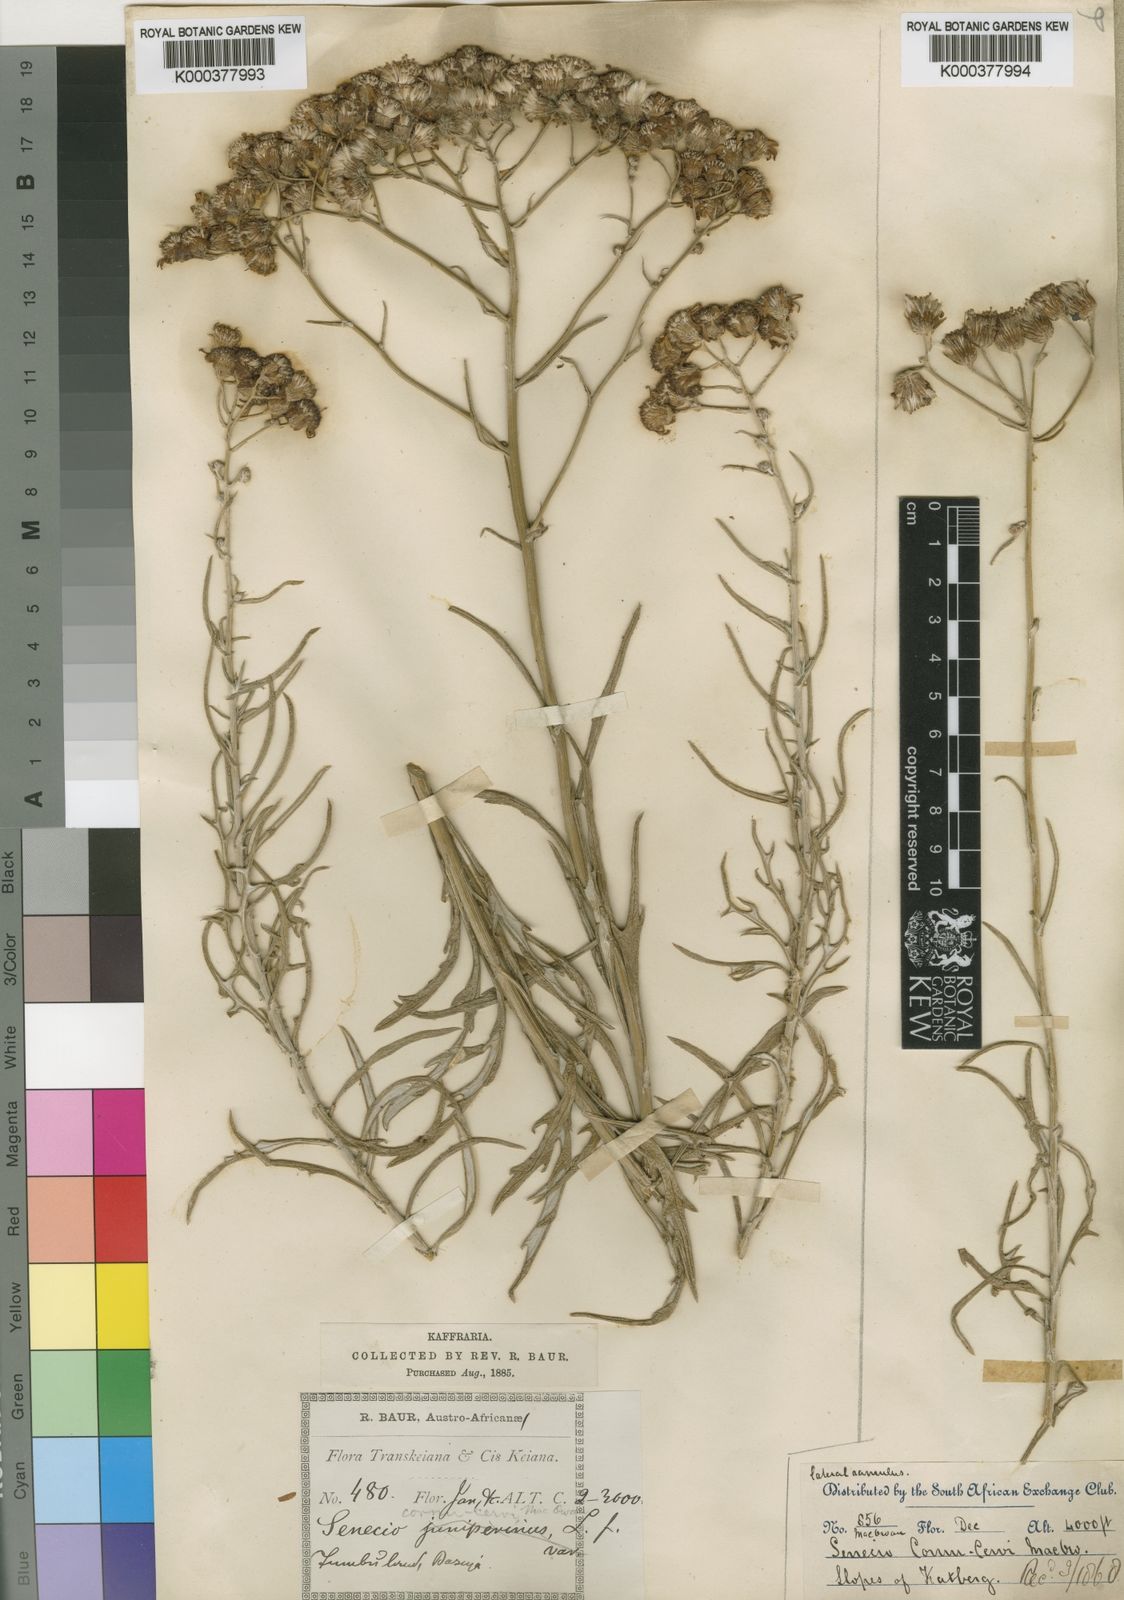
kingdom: Plantae
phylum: Tracheophyta
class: Magnoliopsida
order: Asterales
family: Asteraceae
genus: Senecio
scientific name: Senecio cornu-cervi
